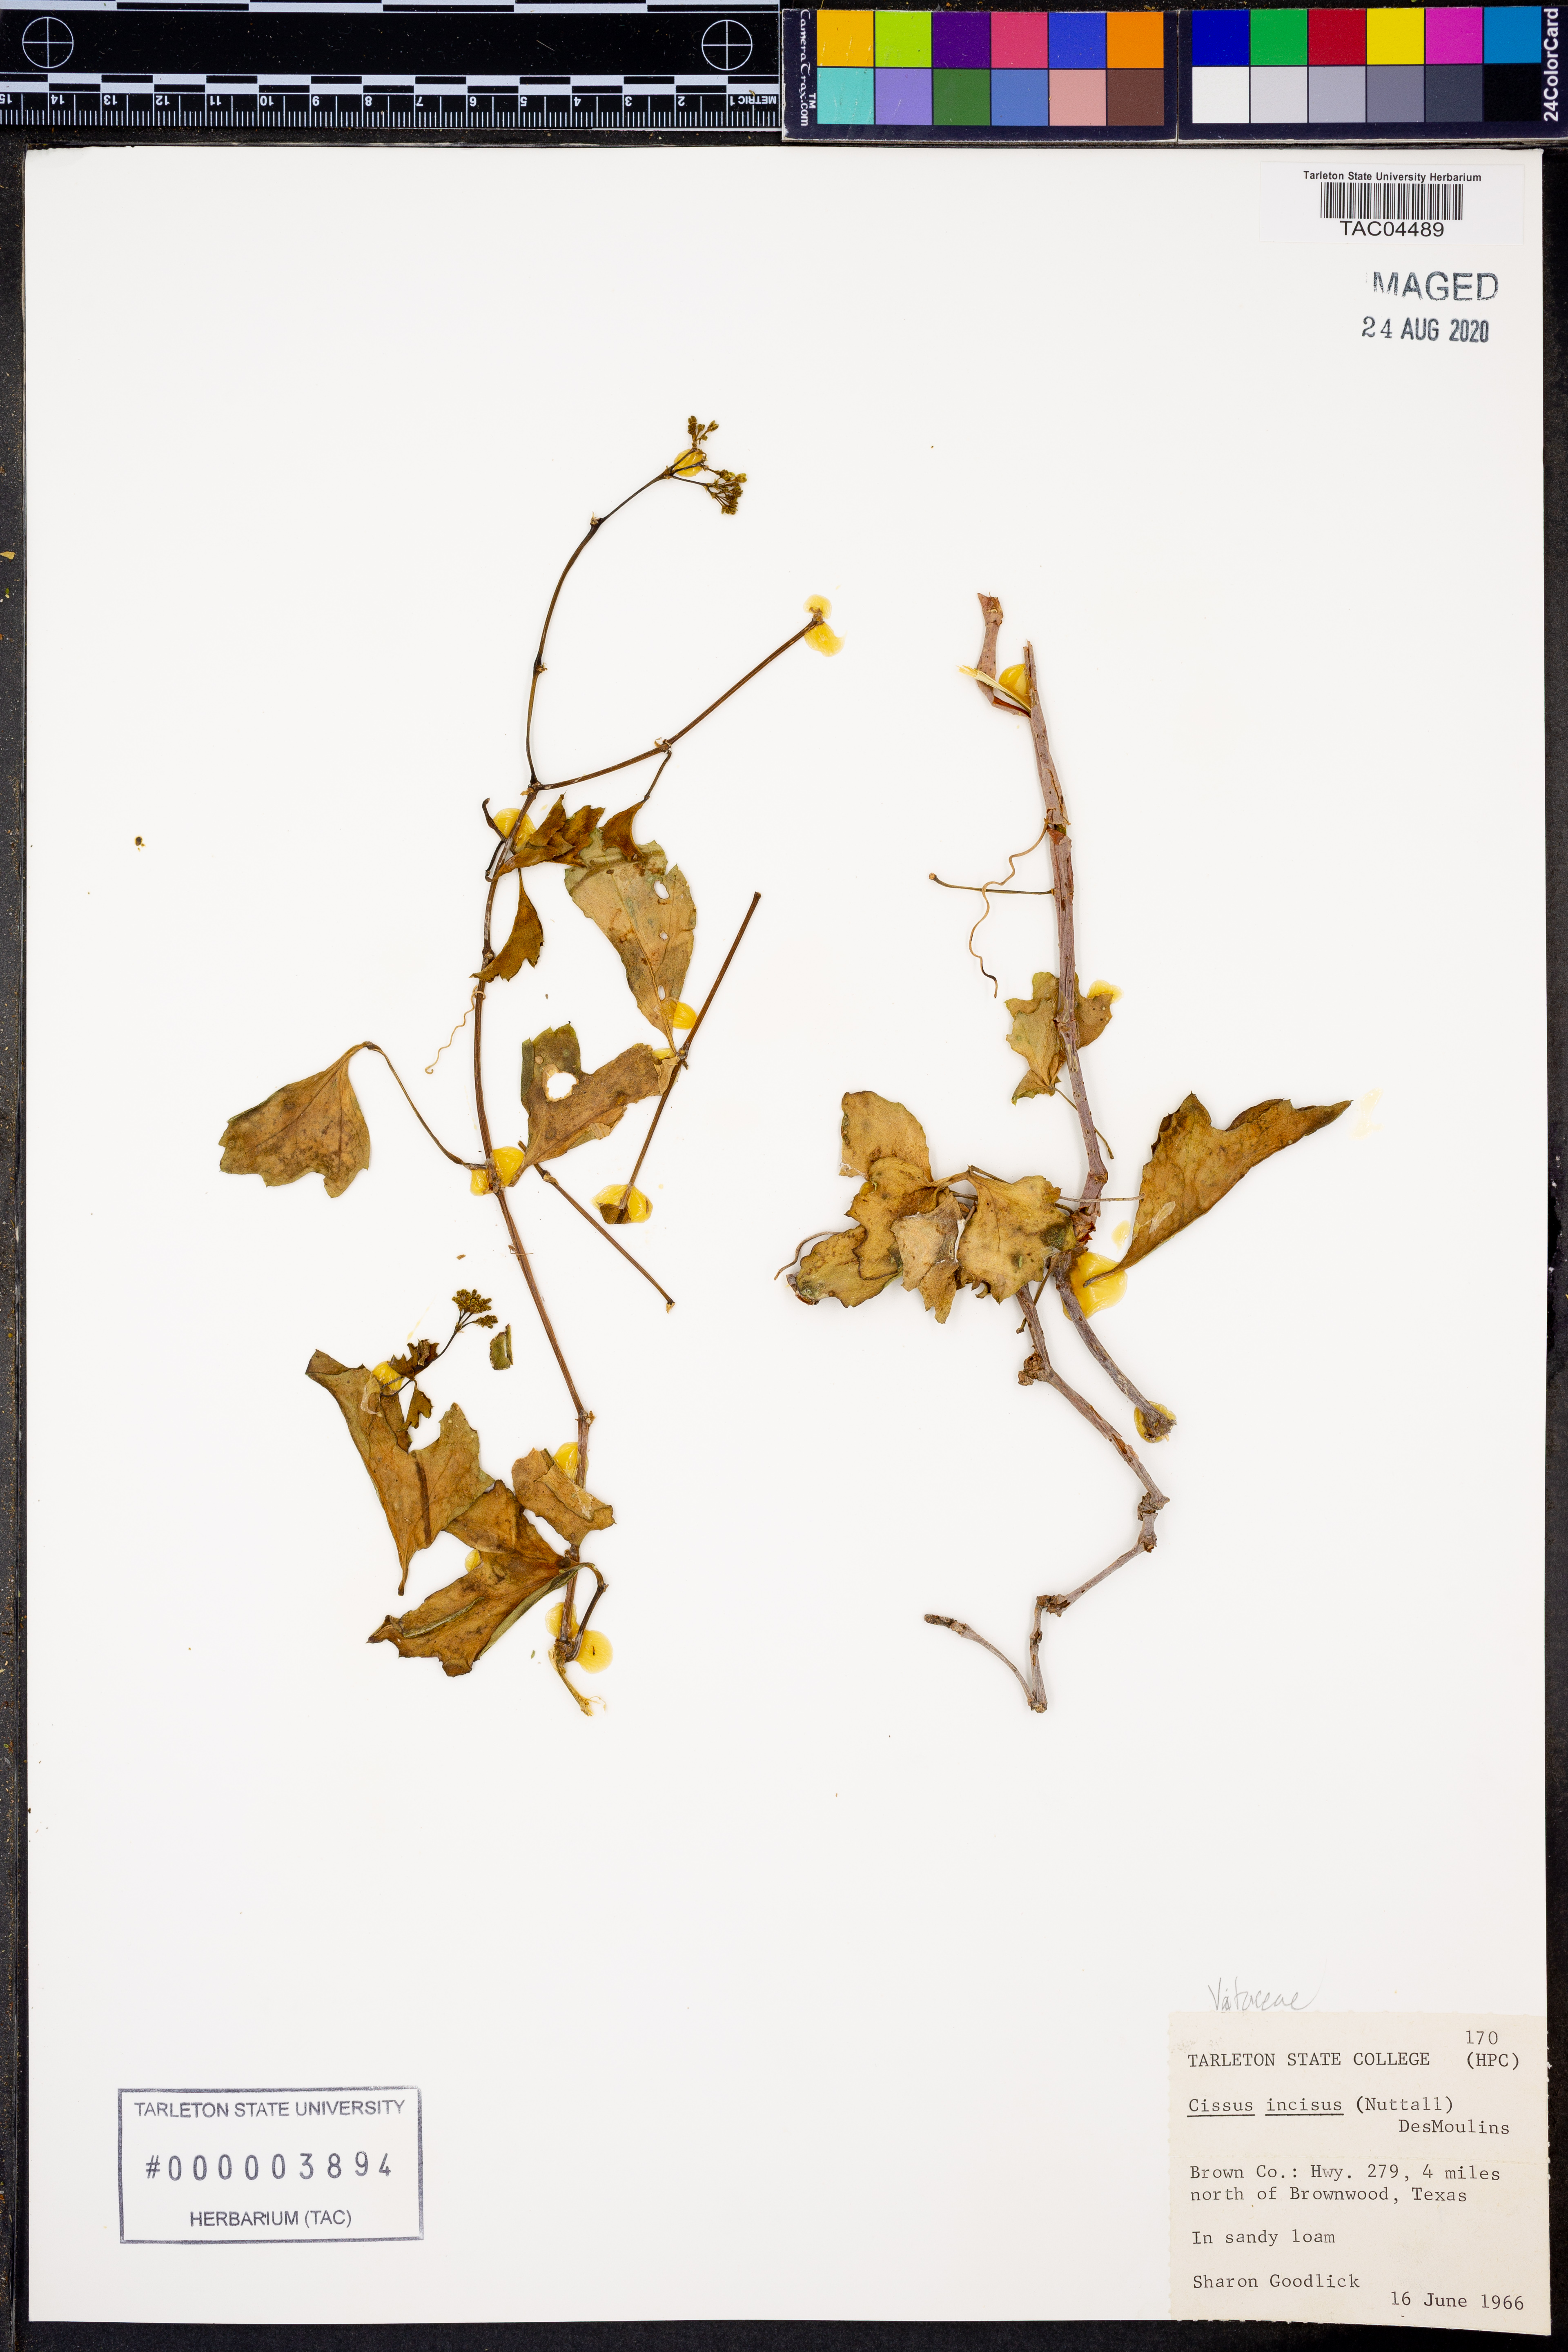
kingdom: Plantae
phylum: Tracheophyta
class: Magnoliopsida
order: Vitales
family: Vitaceae
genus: Cissus
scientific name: Cissus trifoliata
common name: Vine-sorrel
